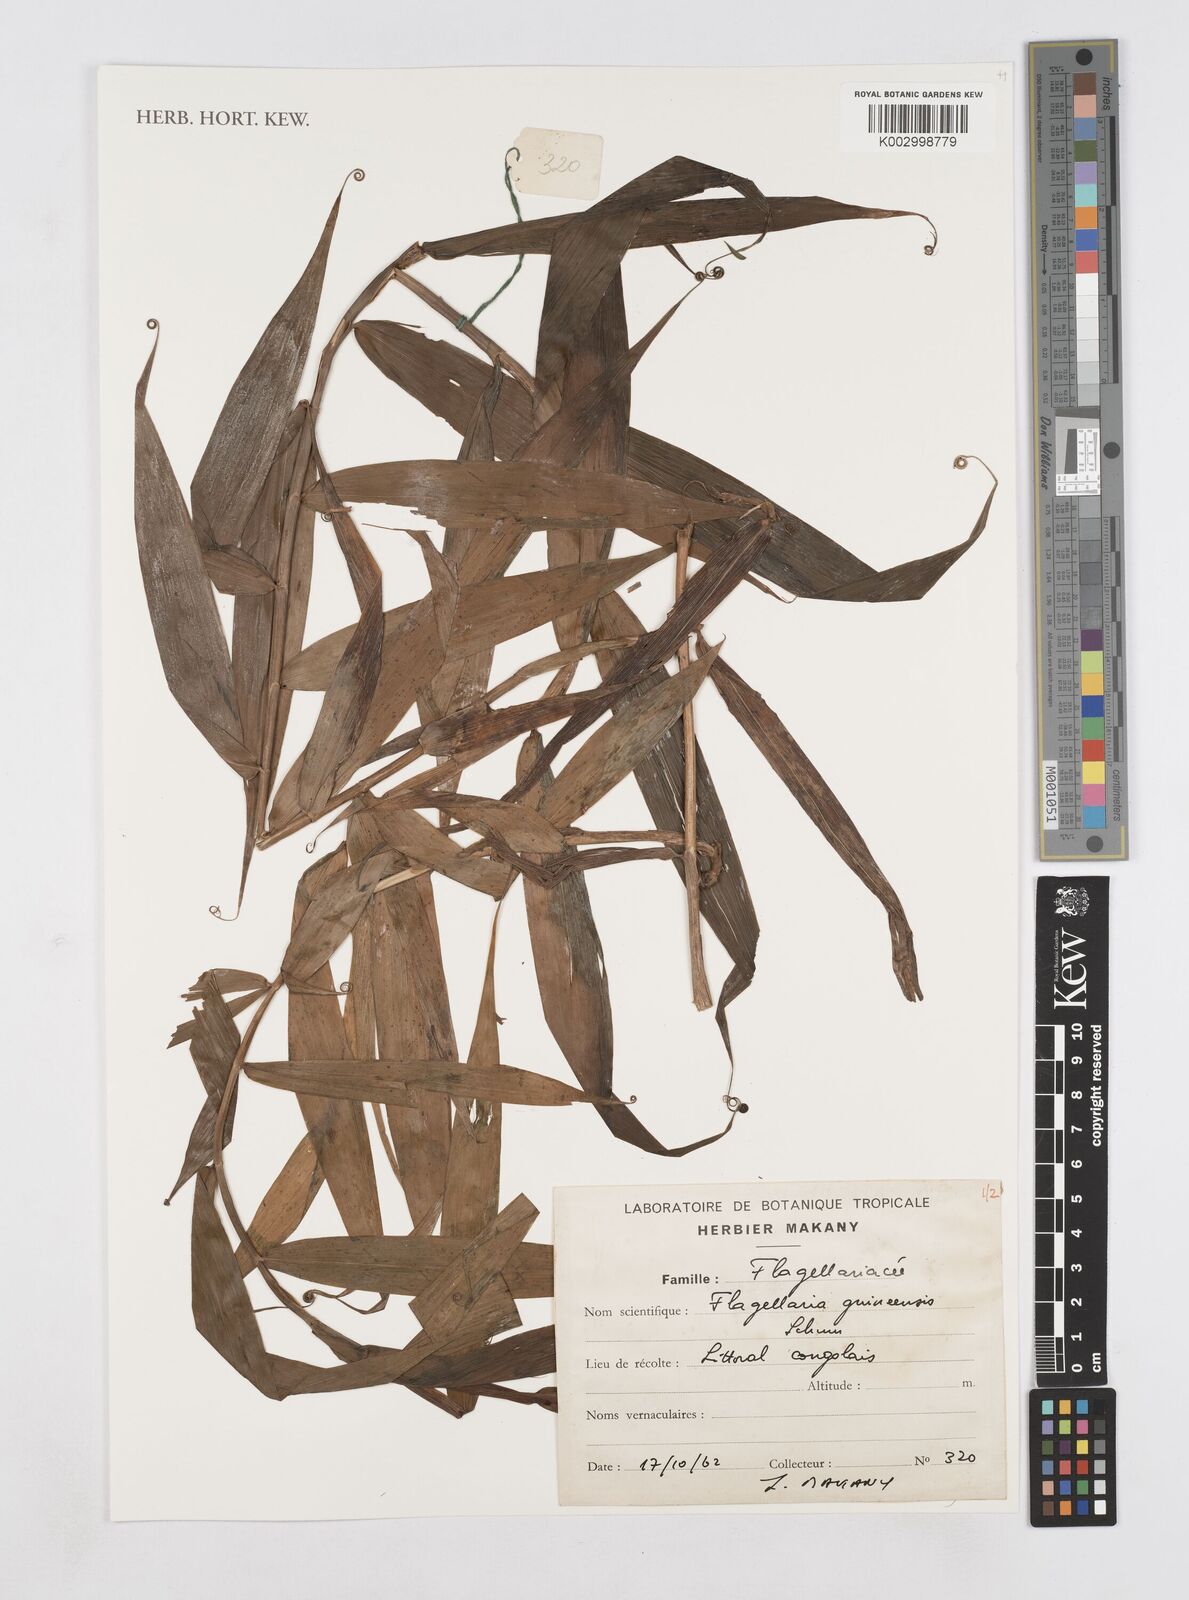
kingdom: Plantae
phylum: Tracheophyta
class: Liliopsida
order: Poales
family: Flagellariaceae
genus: Flagellaria
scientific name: Flagellaria guineensis
